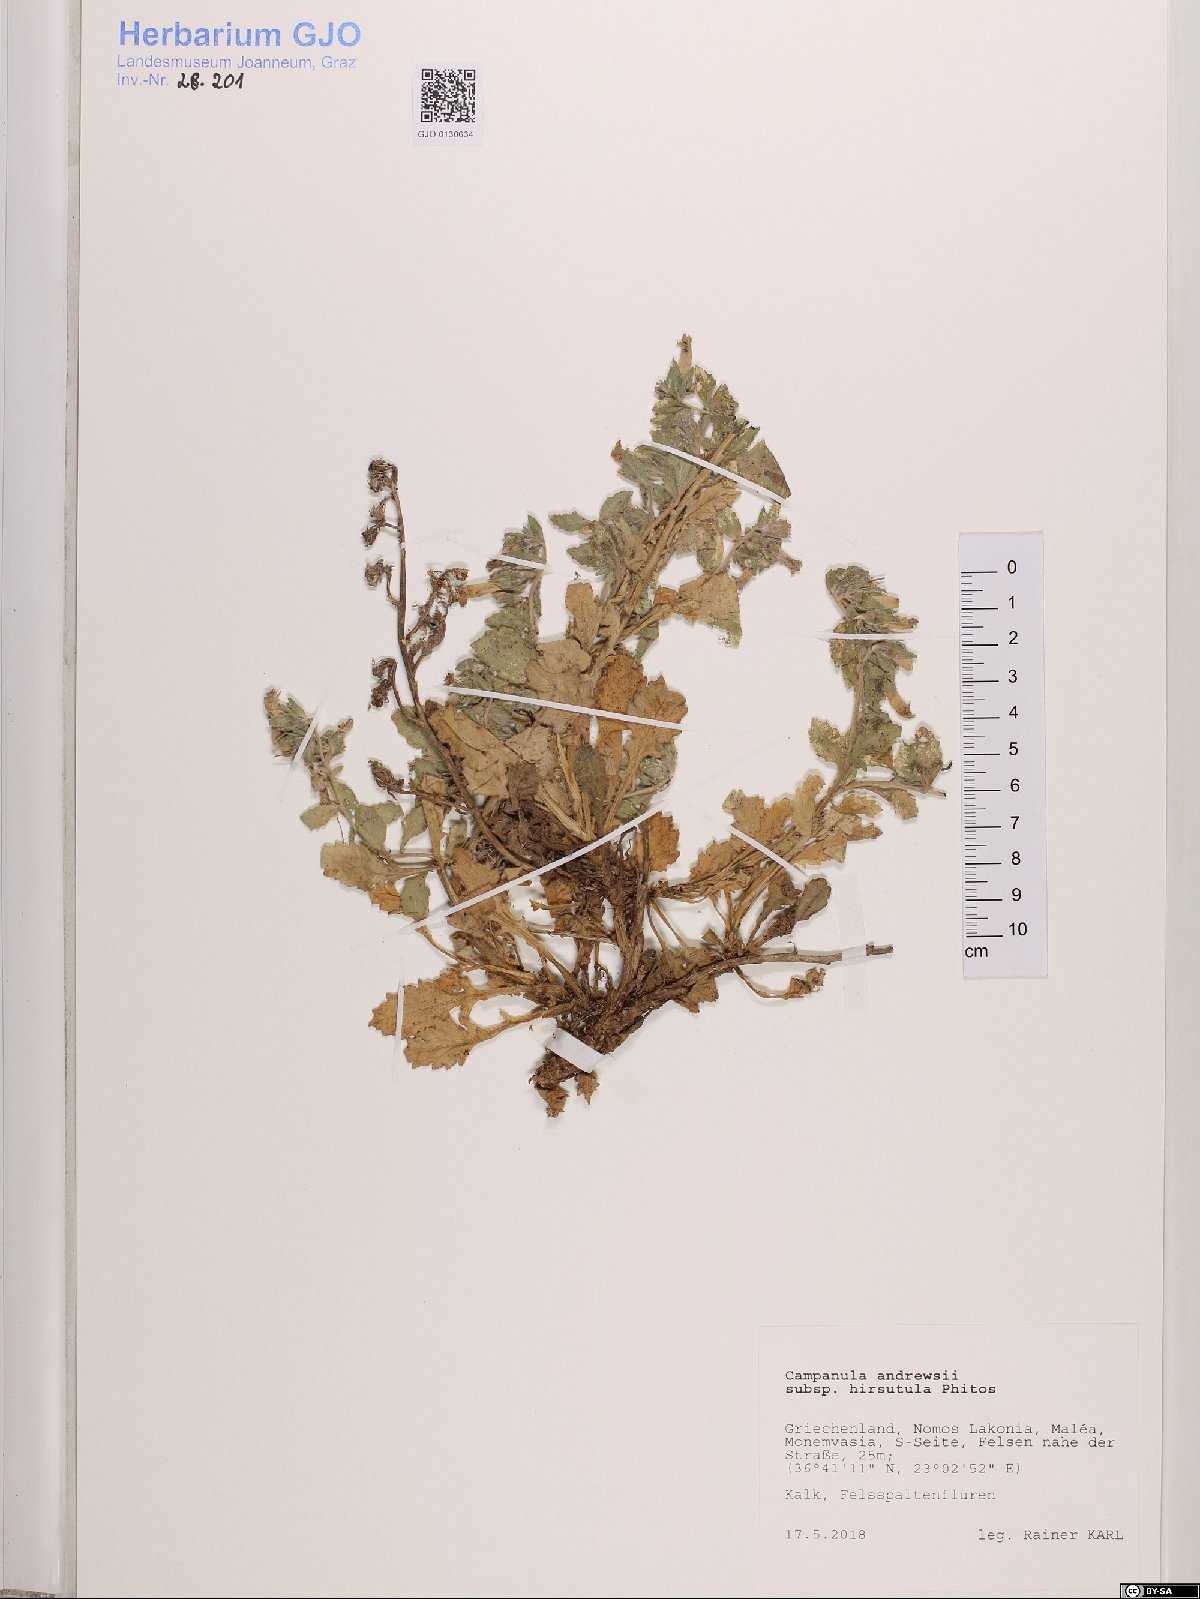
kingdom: Plantae
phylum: Tracheophyta
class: Magnoliopsida
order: Asterales
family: Campanulaceae
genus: Campanula
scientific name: Campanula andrewsii
